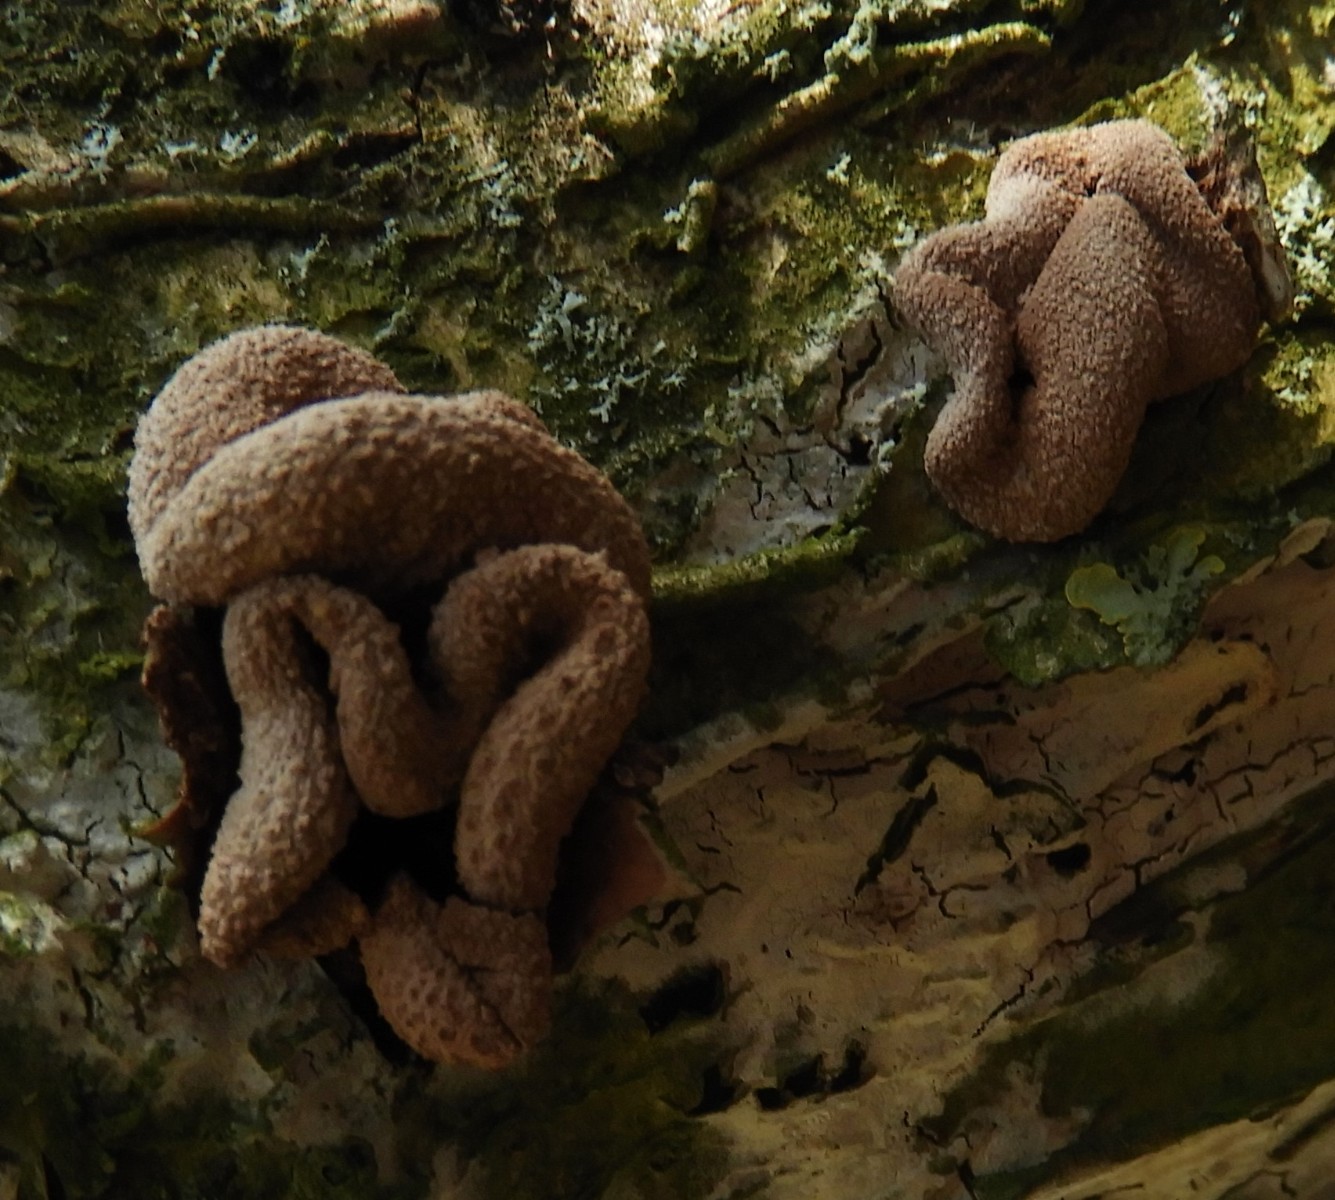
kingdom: Fungi
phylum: Ascomycota
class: Leotiomycetes
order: Helotiales
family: Cenangiaceae
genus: Encoelia
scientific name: Encoelia furfuracea
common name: hassel-læderskive
